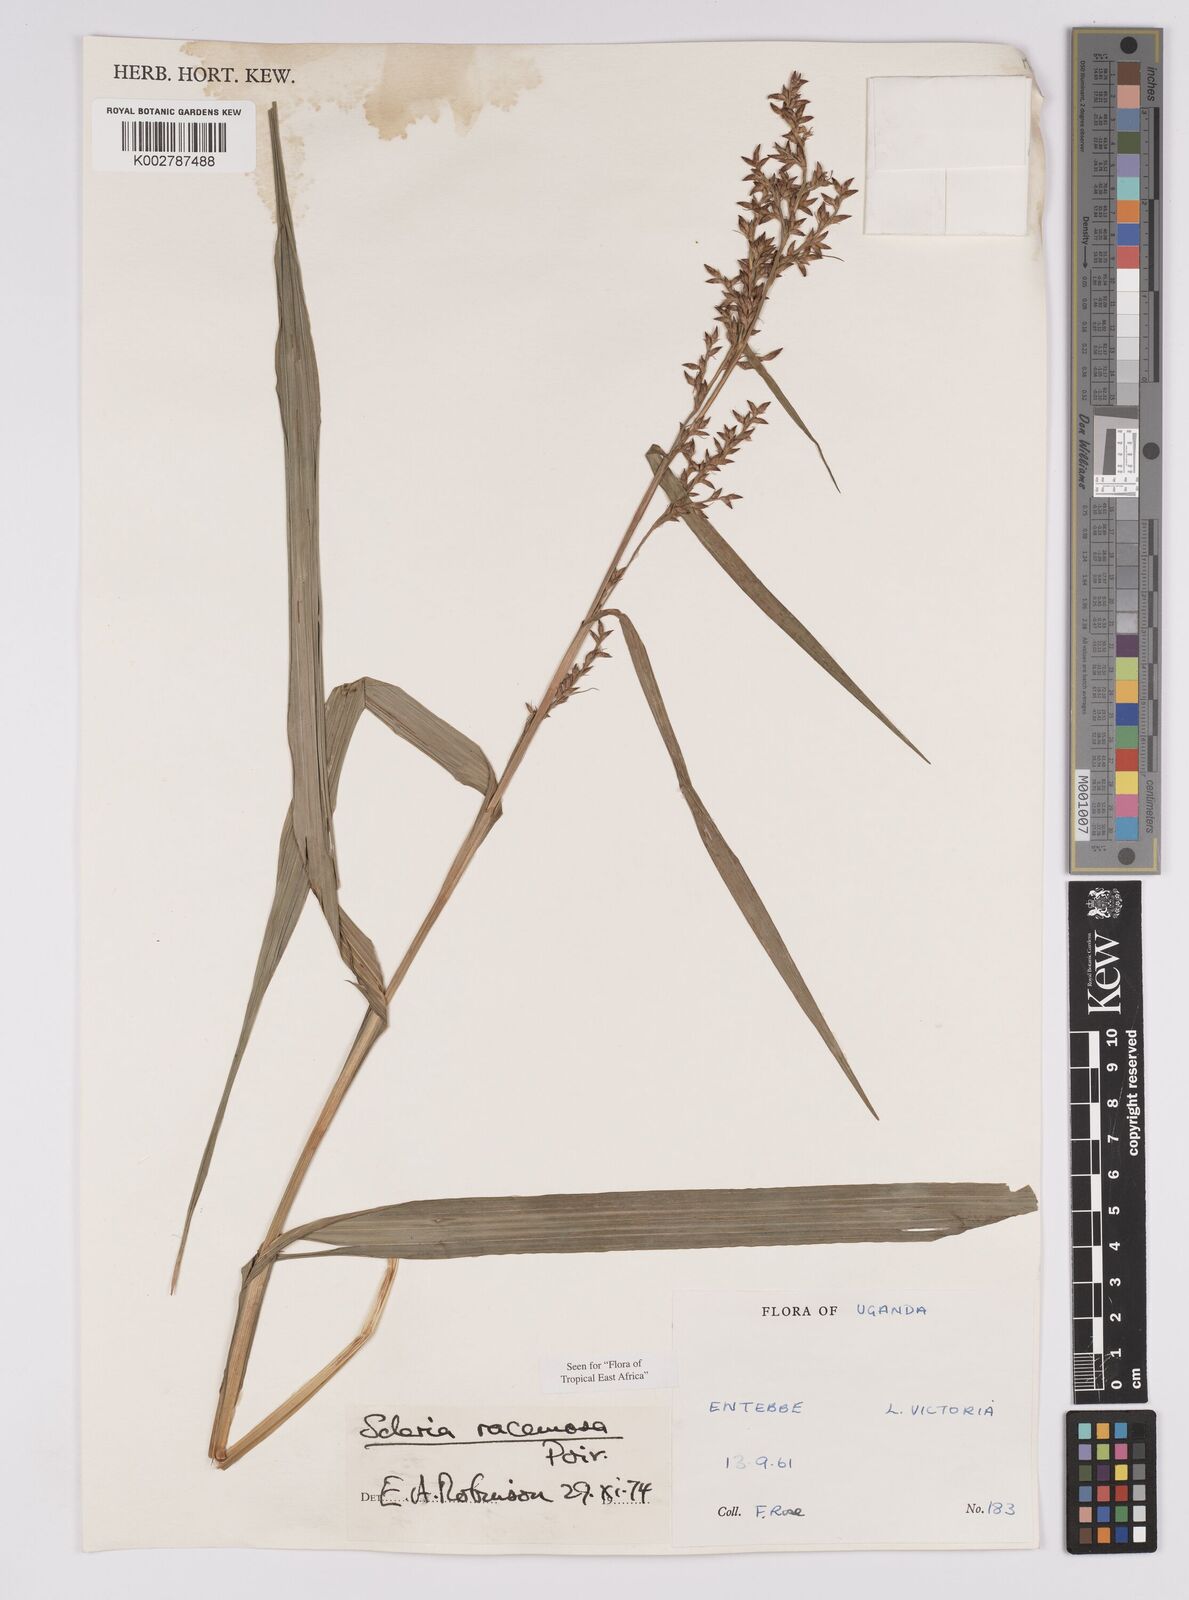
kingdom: Plantae
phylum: Tracheophyta
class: Liliopsida
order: Poales
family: Cyperaceae
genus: Scleria
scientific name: Scleria racemosa
